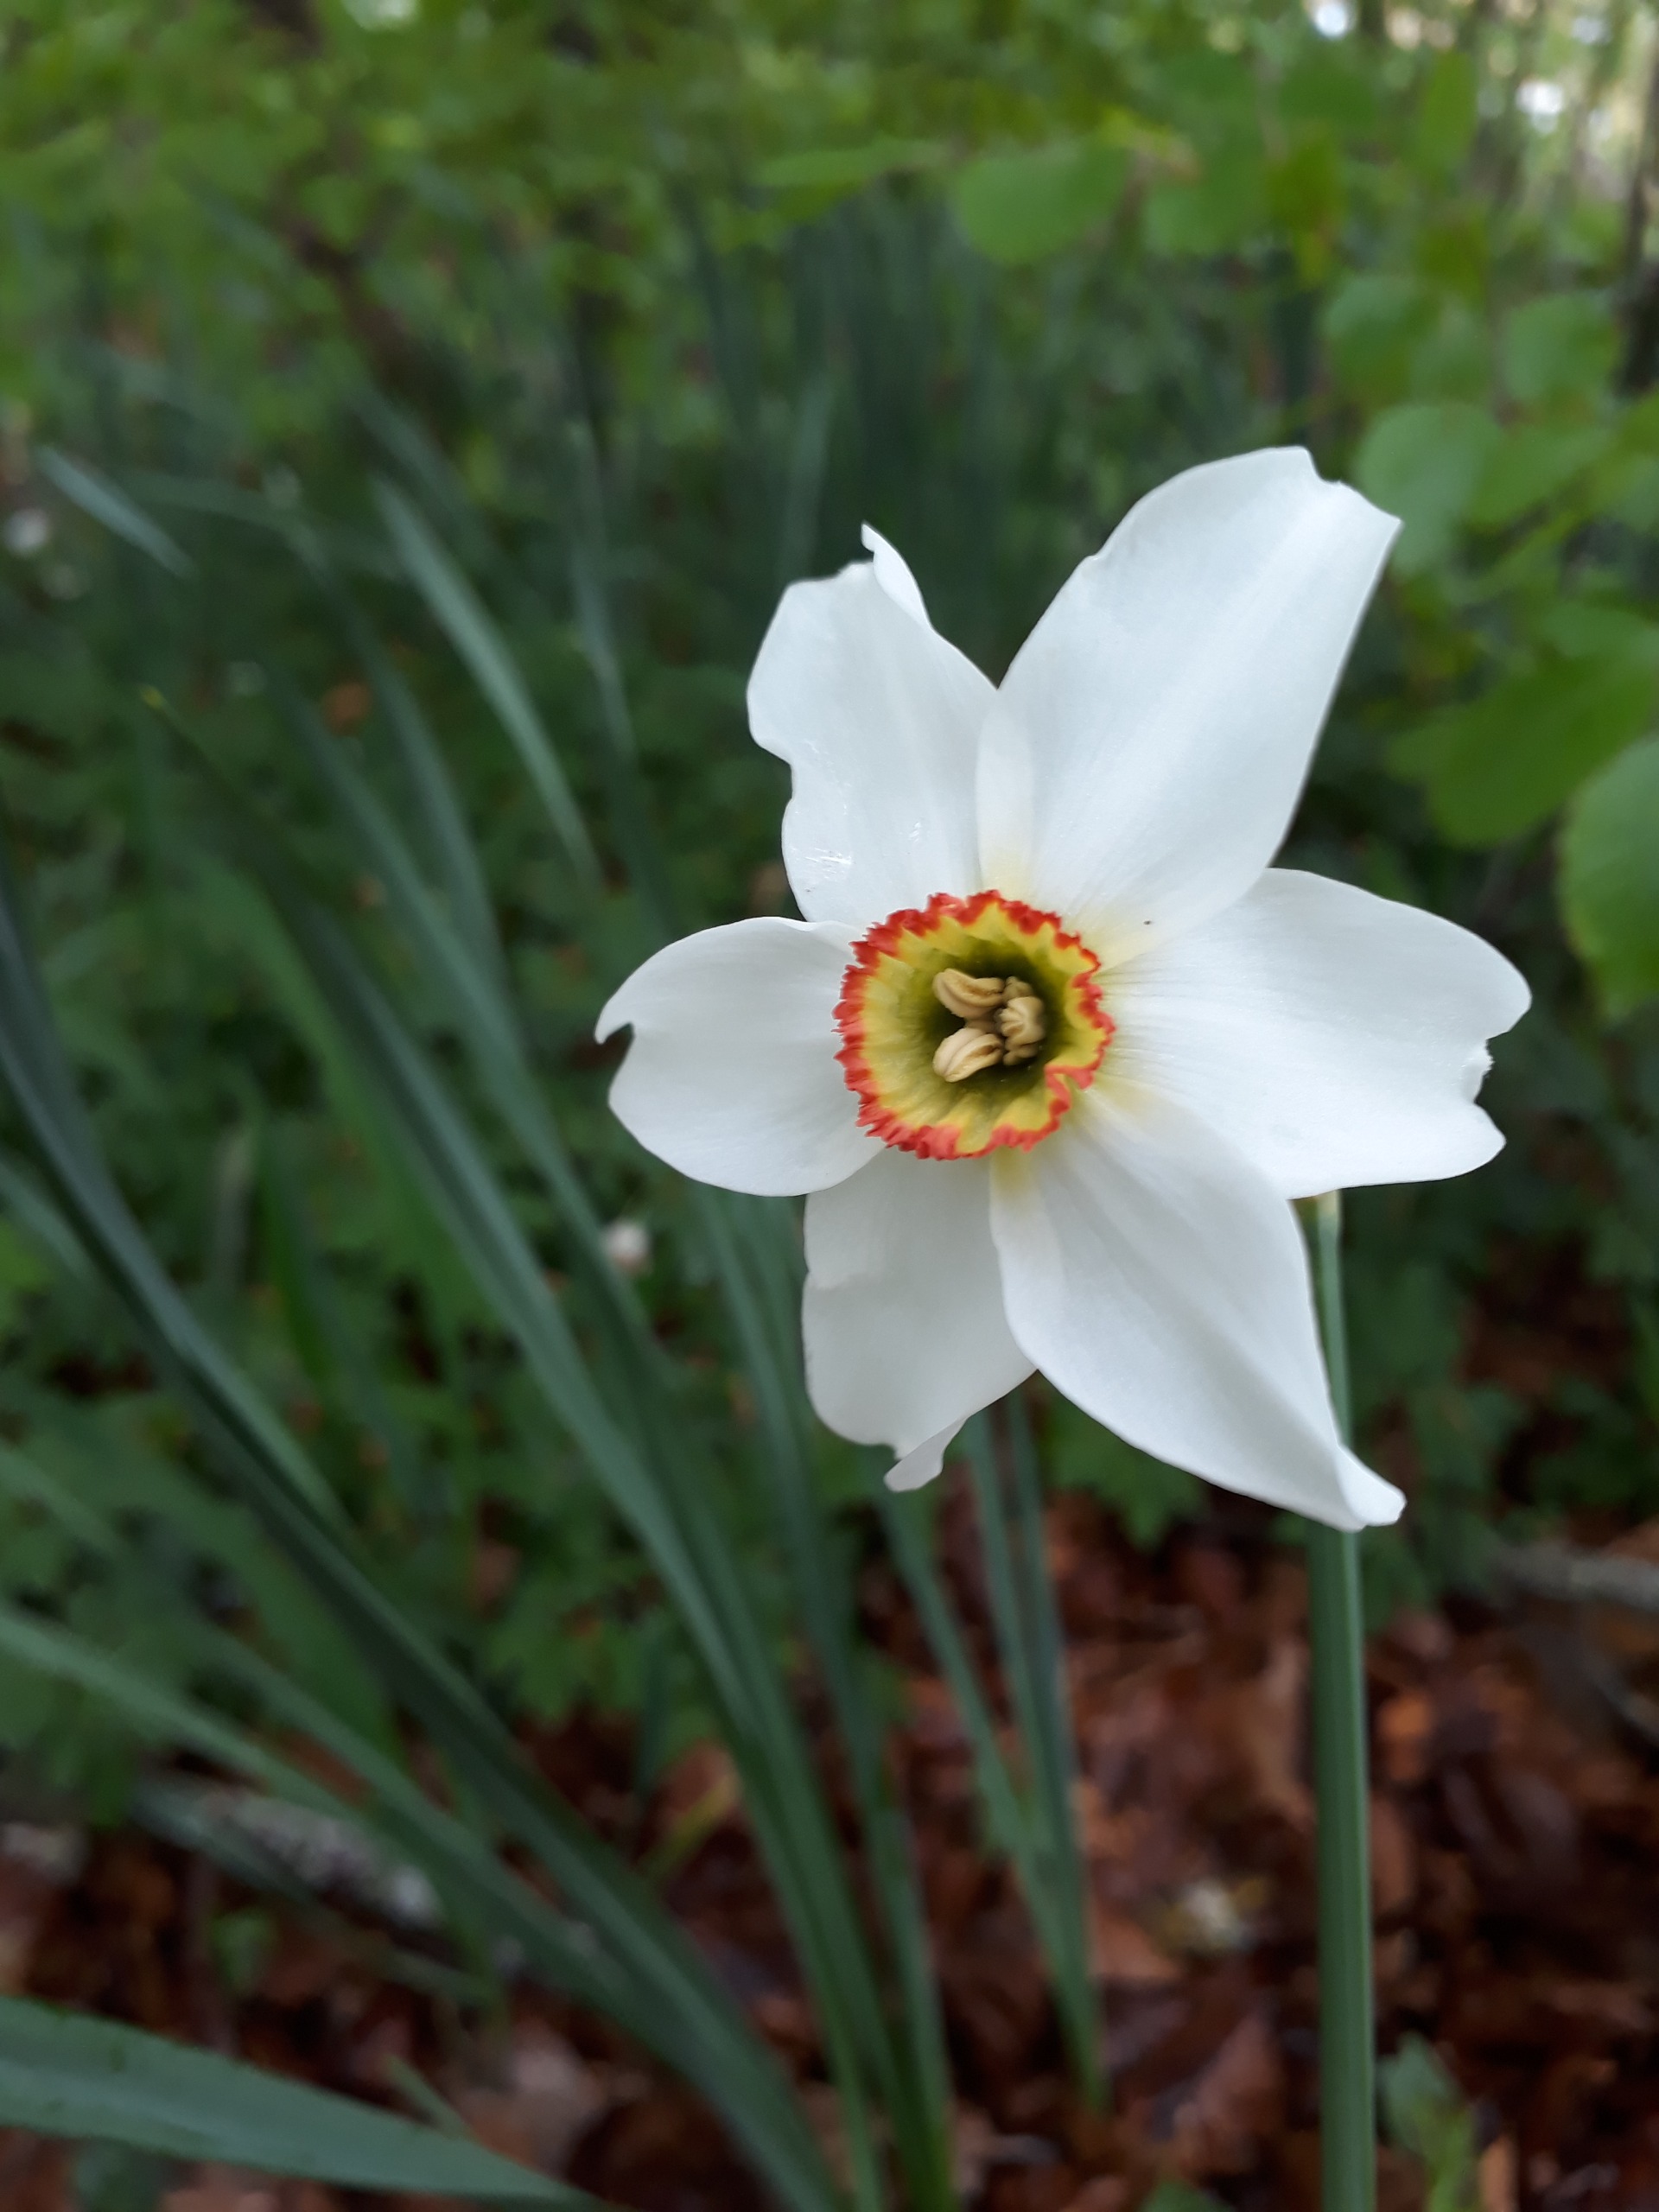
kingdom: Plantae
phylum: Tracheophyta
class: Liliopsida
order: Asparagales
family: Amaryllidaceae
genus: Narcissus
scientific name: Narcissus poeticus
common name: Pinselilje
